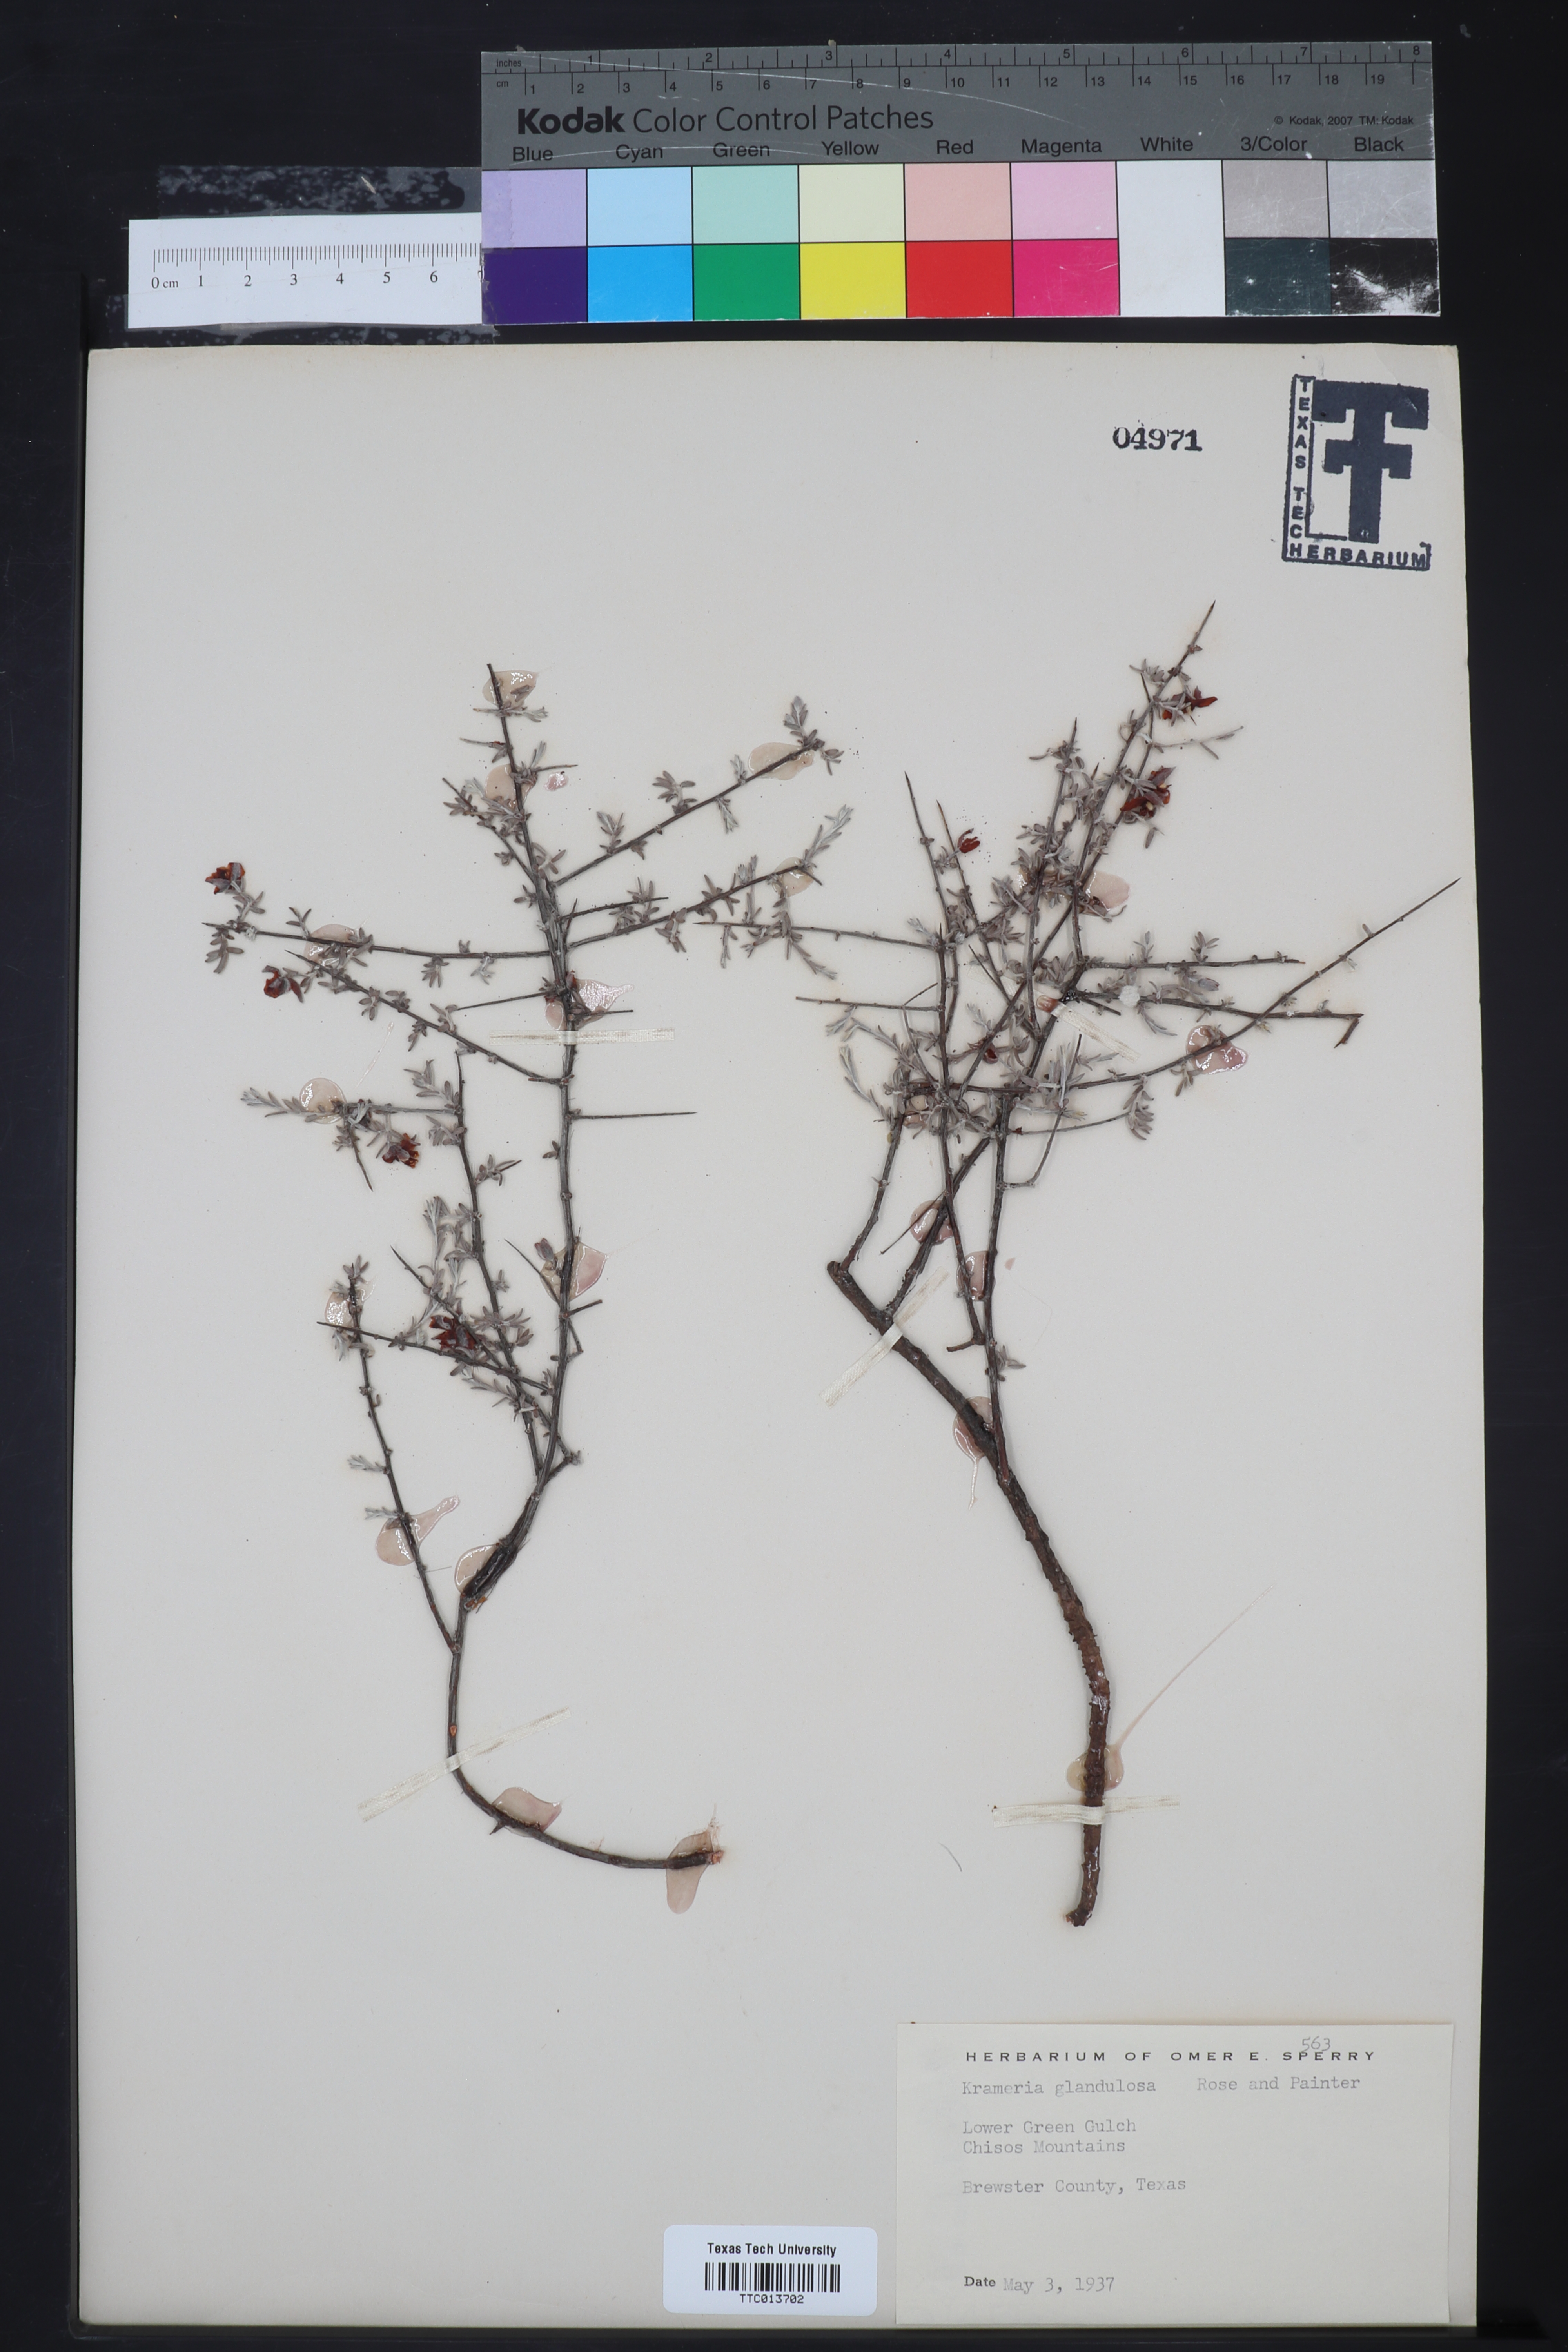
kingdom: Plantae
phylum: Tracheophyta
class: Magnoliopsida
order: Zygophyllales
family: Krameriaceae
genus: Krameria
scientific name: Krameria erecta
